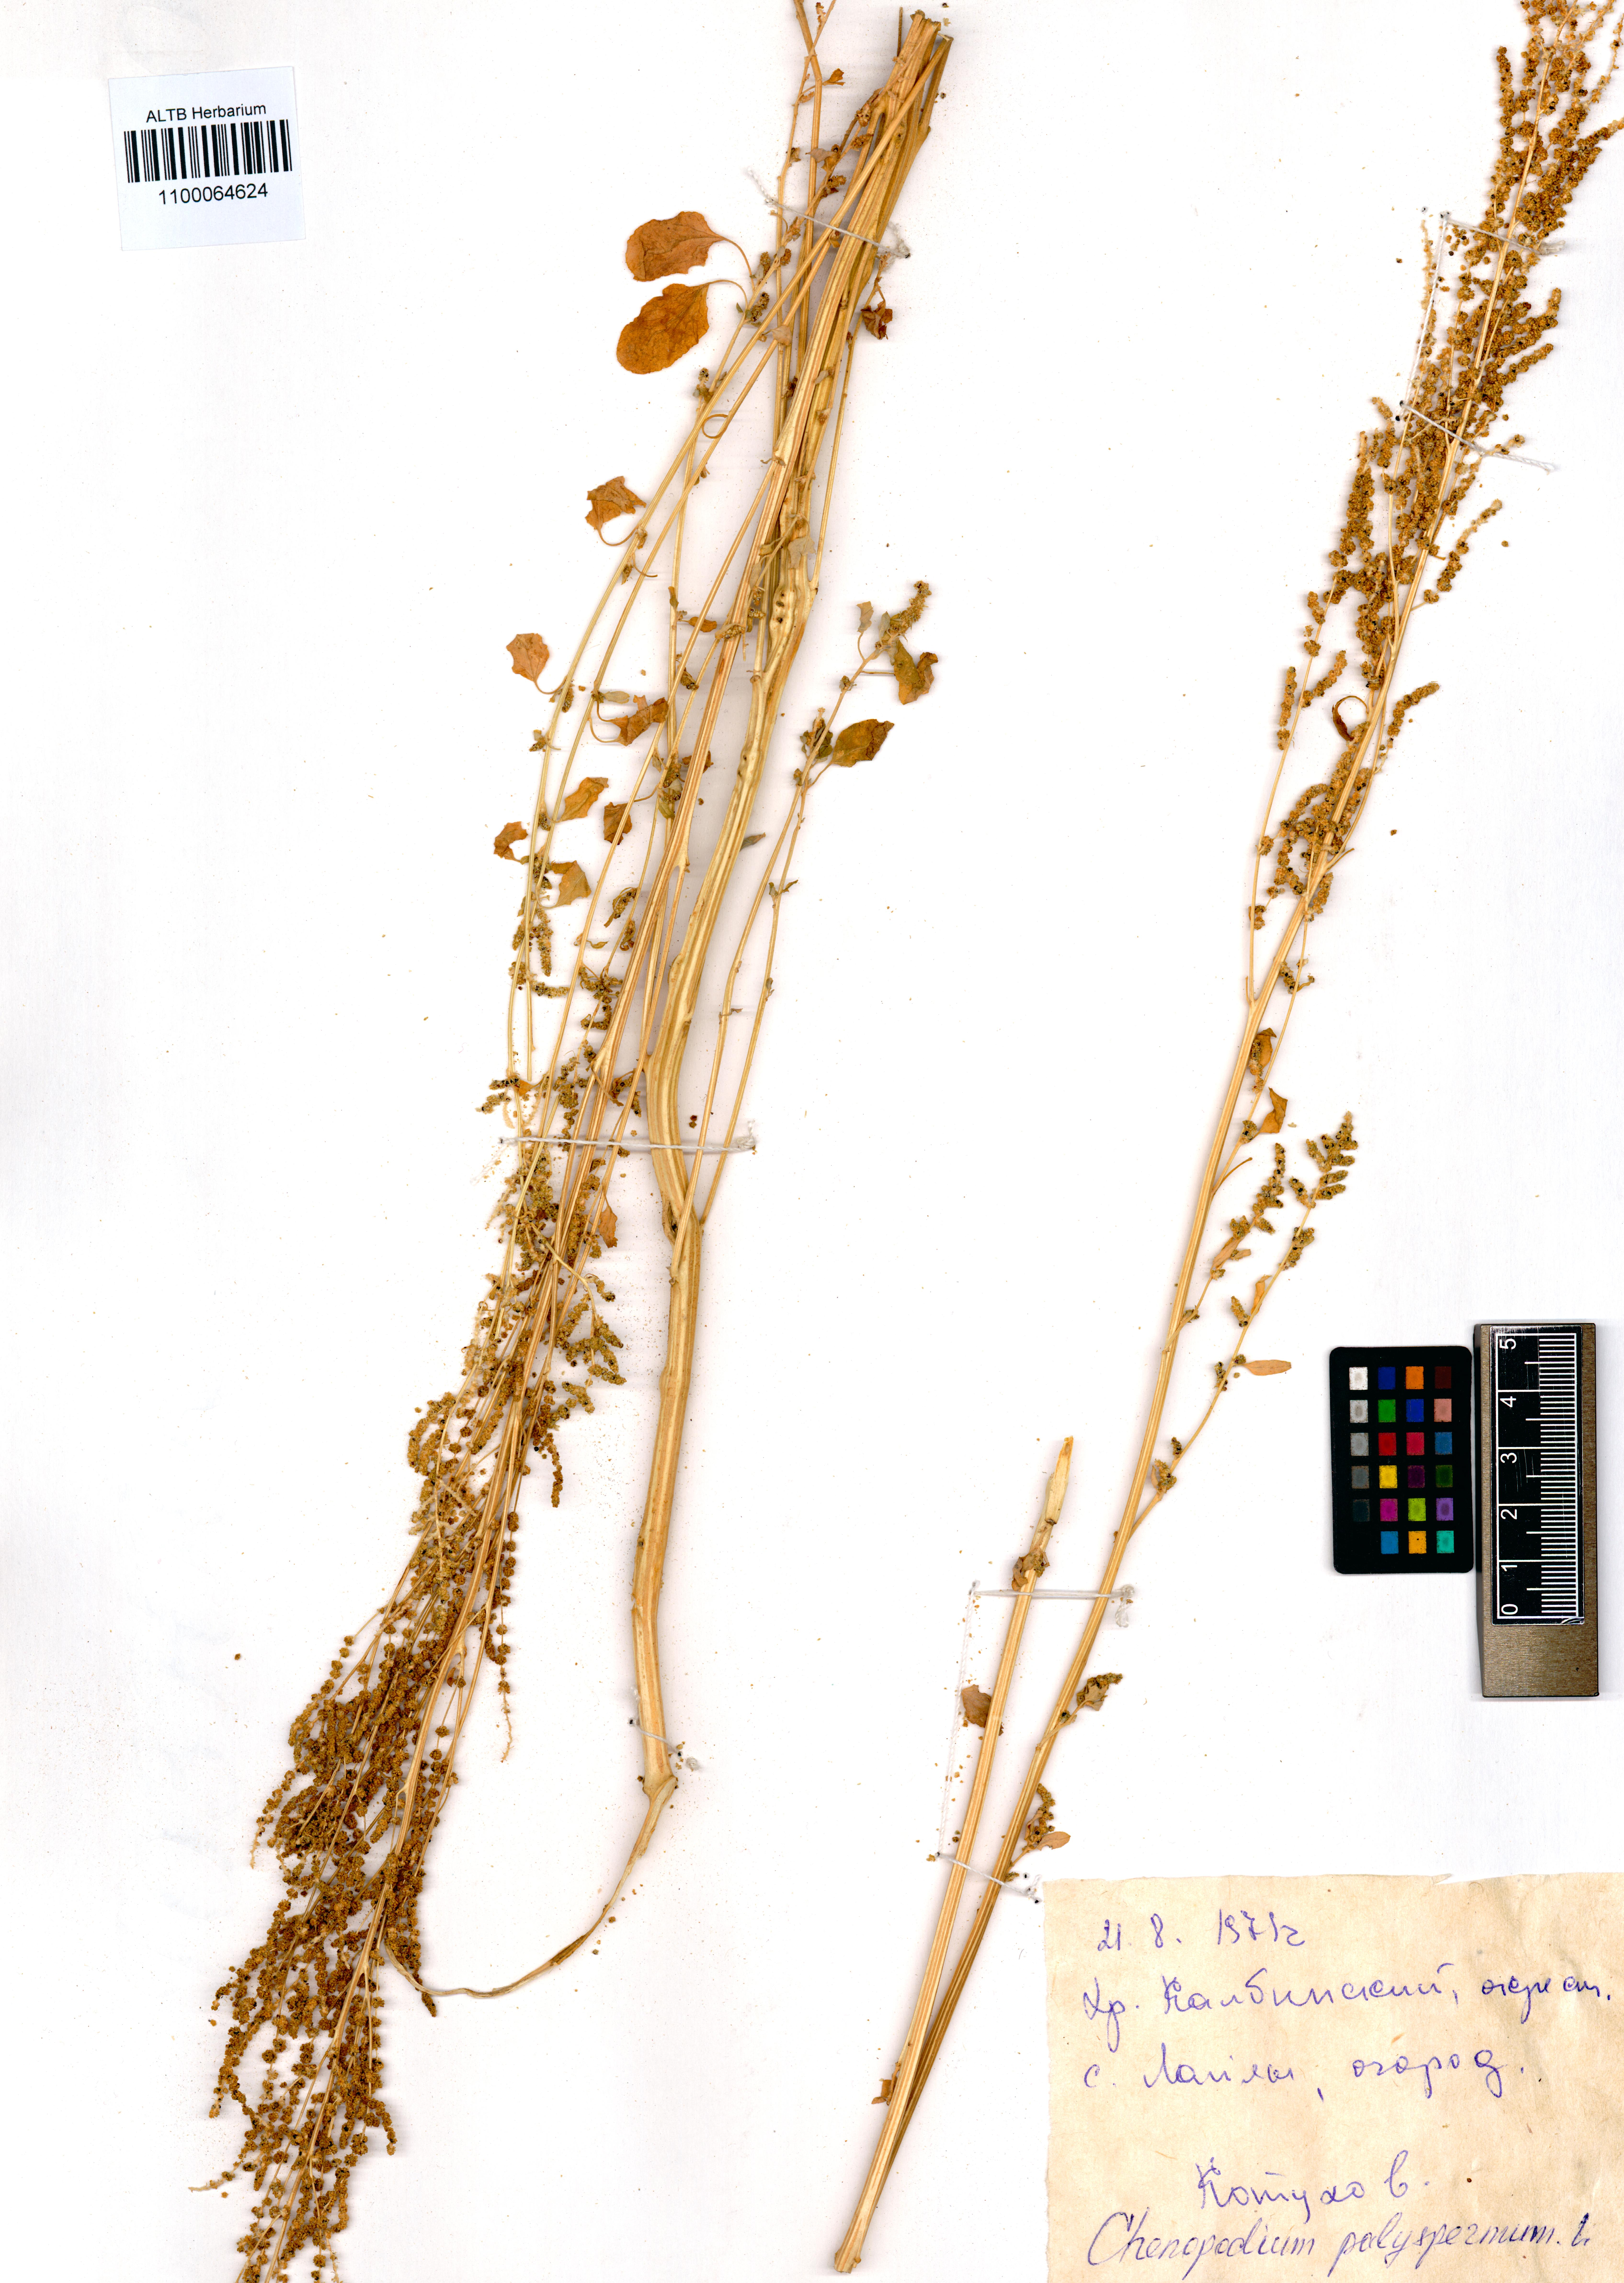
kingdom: Plantae
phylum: Tracheophyta
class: Magnoliopsida
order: Caryophyllales
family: Amaranthaceae
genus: Lipandra
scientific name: Lipandra polysperma
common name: Many-seed goosefoot
